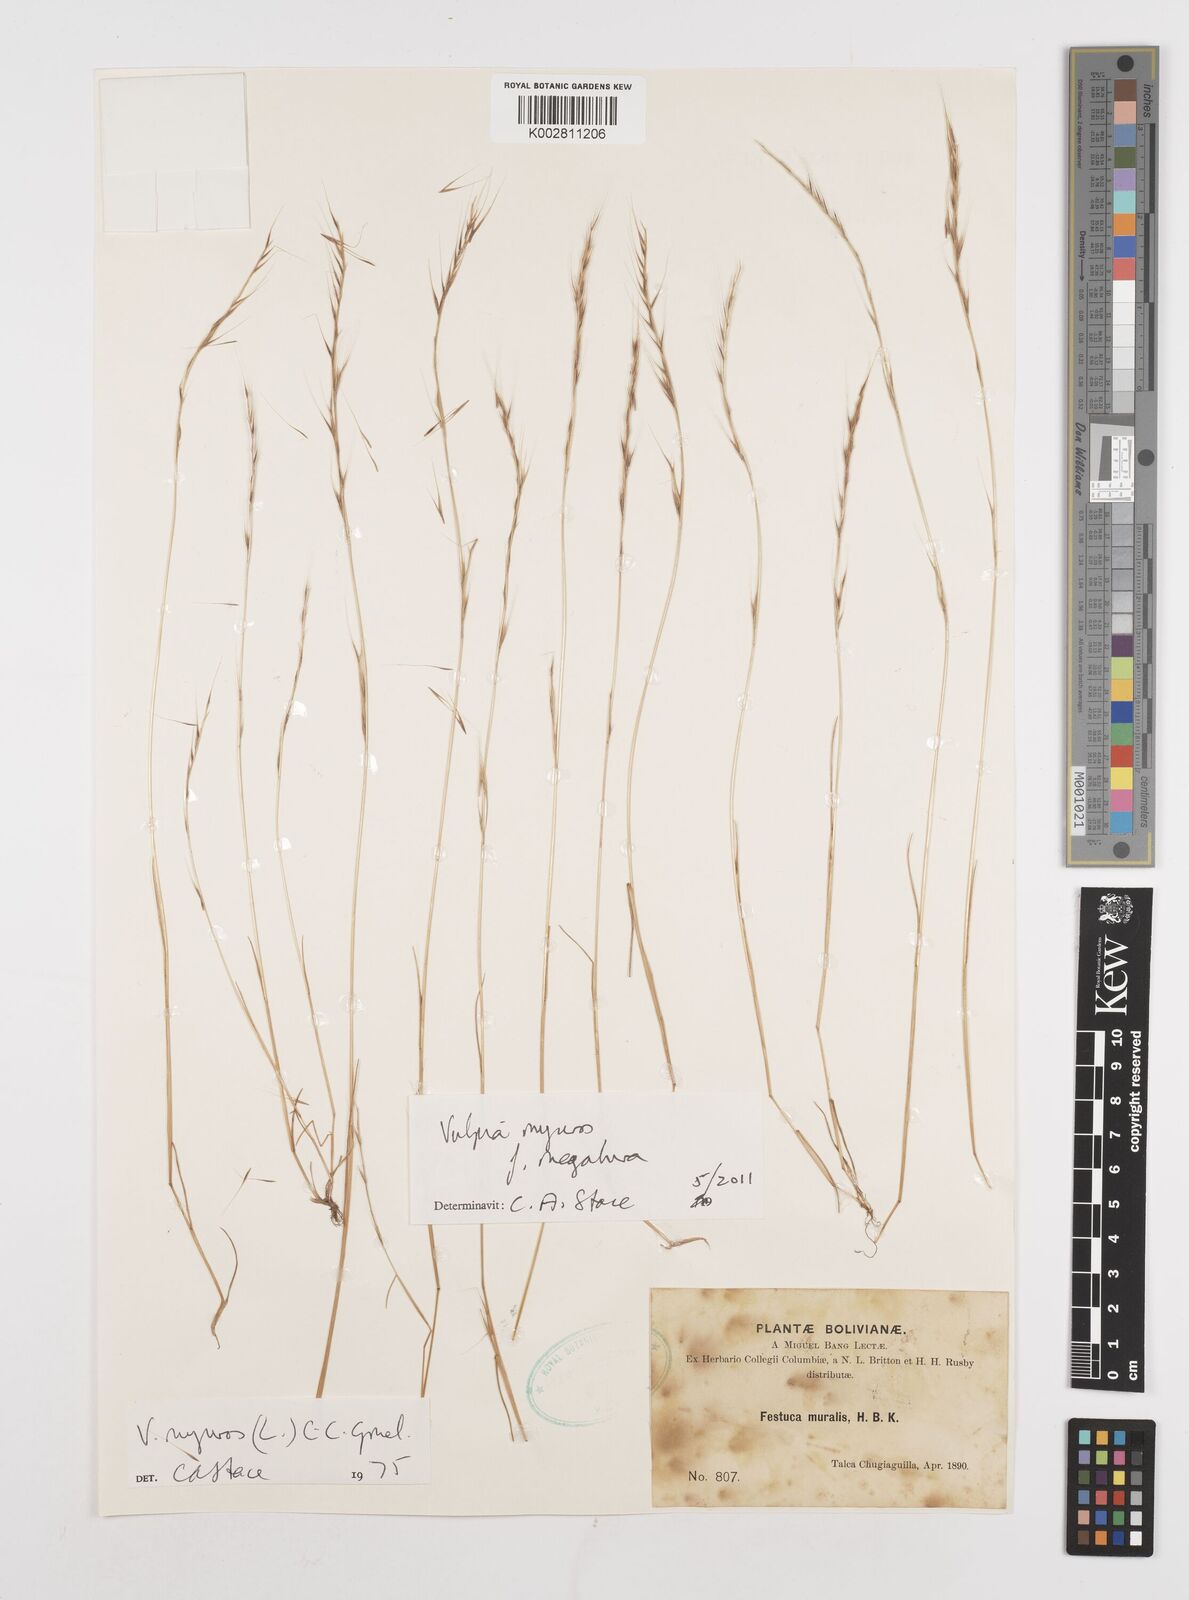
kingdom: Plantae
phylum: Tracheophyta
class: Liliopsida
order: Poales
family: Poaceae
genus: Festuca
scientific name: Festuca myuros
